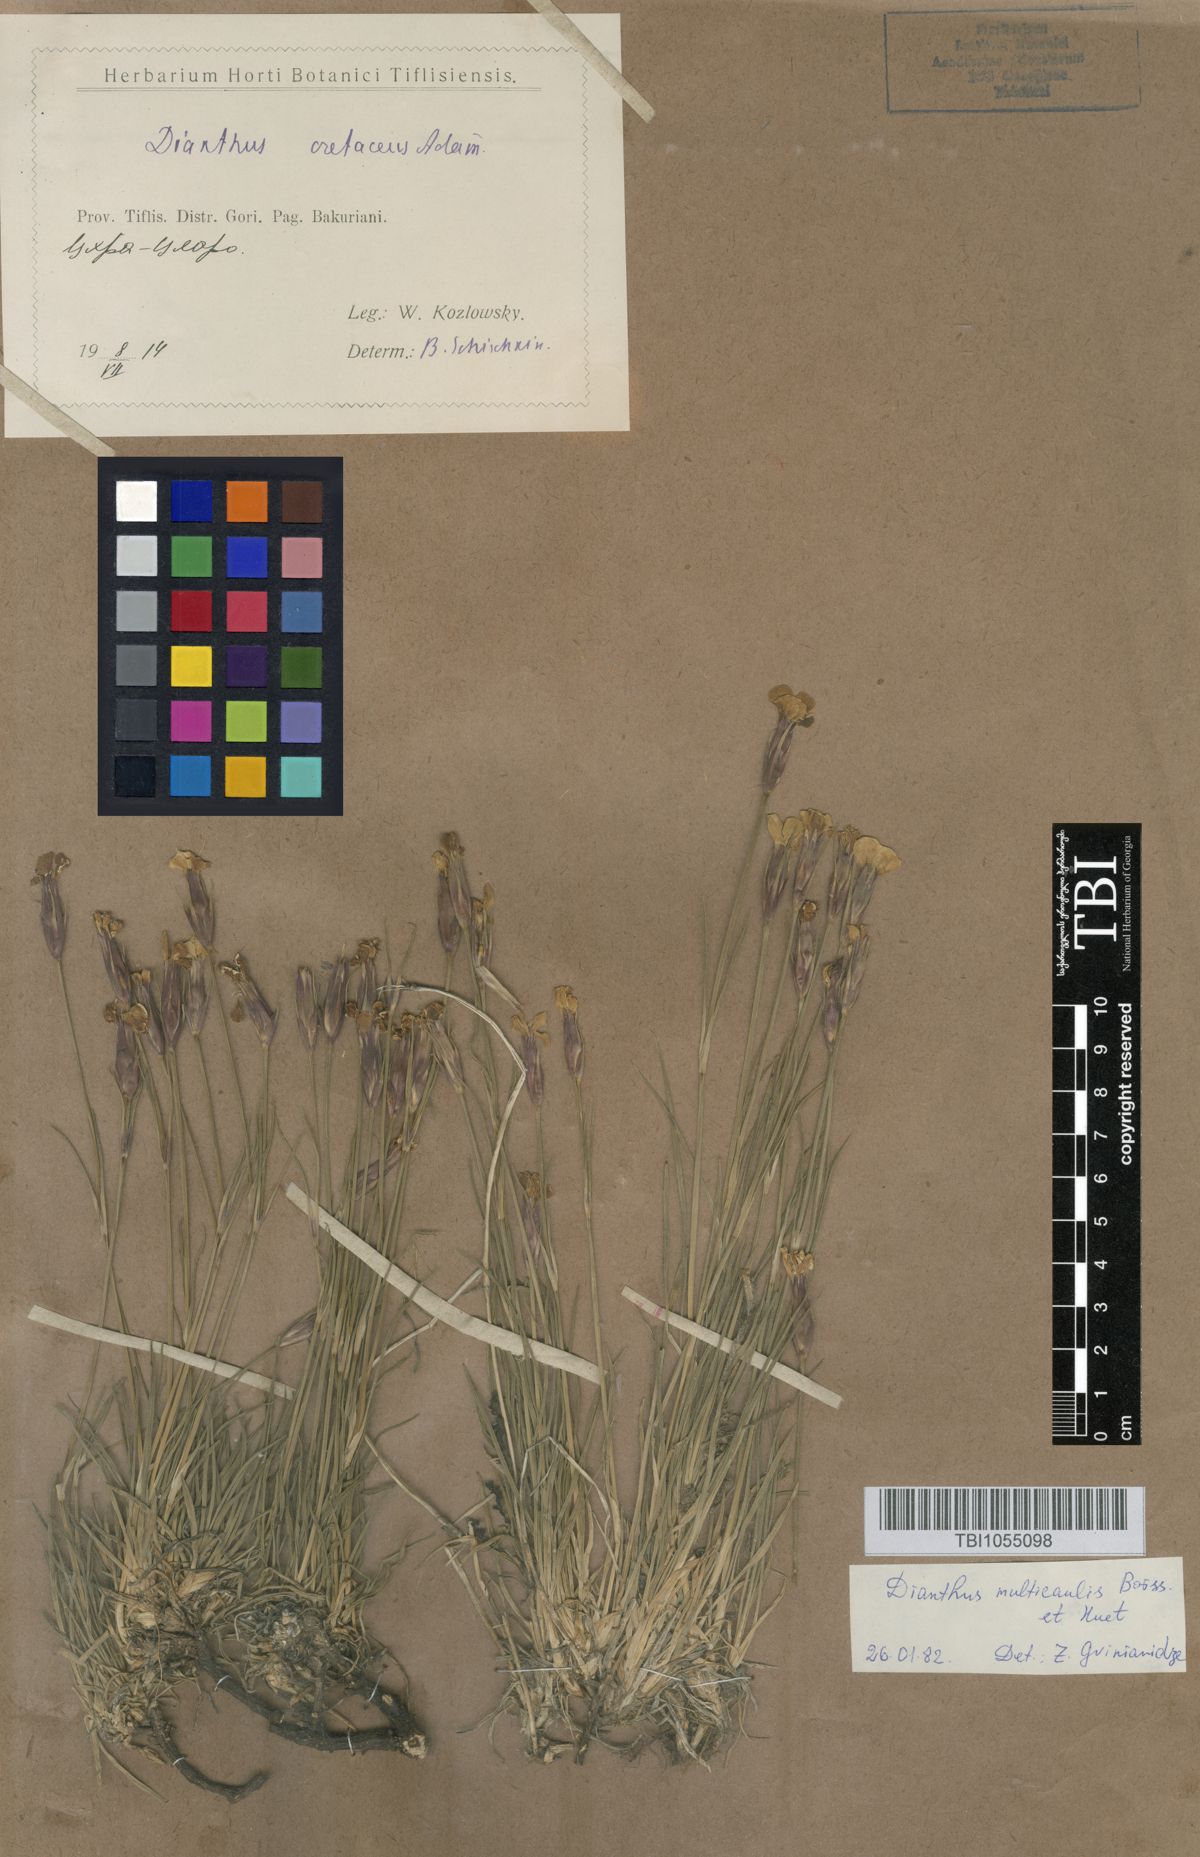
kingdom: Plantae
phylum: Tracheophyta
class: Magnoliopsida
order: Caryophyllales
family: Caryophyllaceae
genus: Dianthus
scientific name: Dianthus cretaceus
